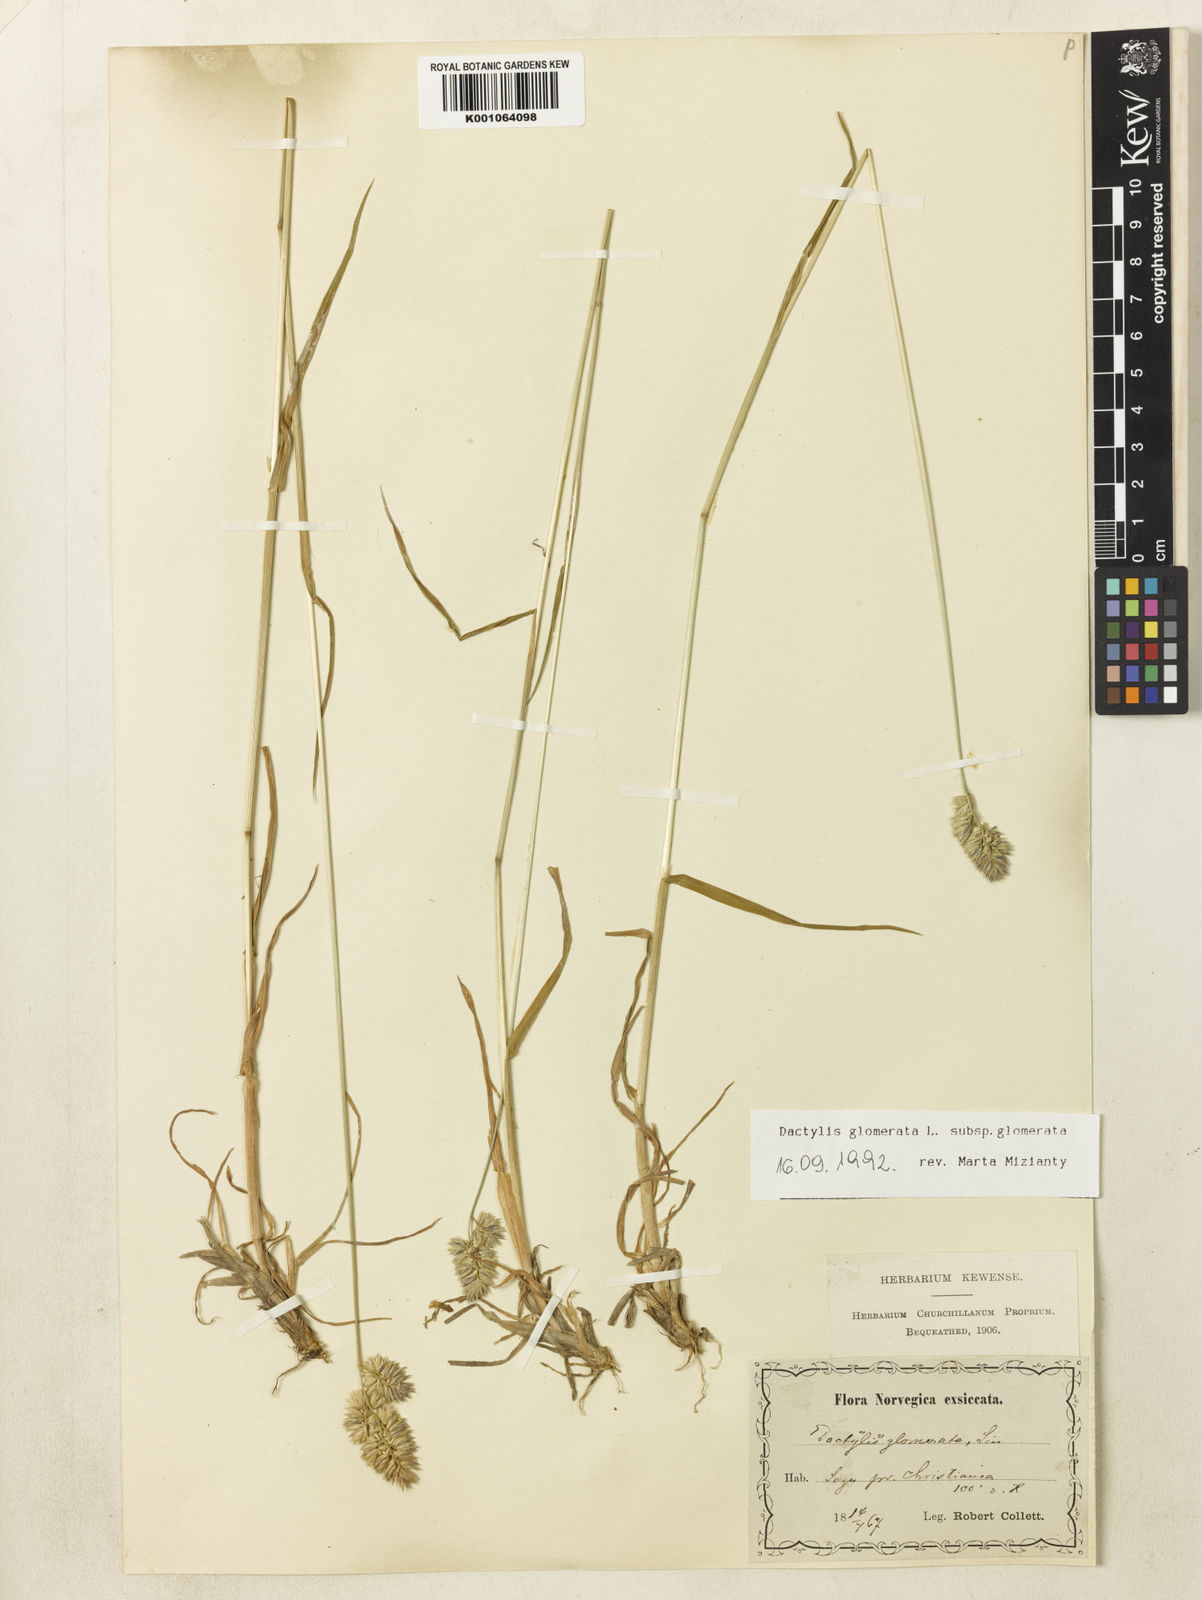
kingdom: Plantae
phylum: Tracheophyta
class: Liliopsida
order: Poales
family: Poaceae
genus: Dactylis
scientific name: Dactylis glomerata
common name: Orchardgrass
